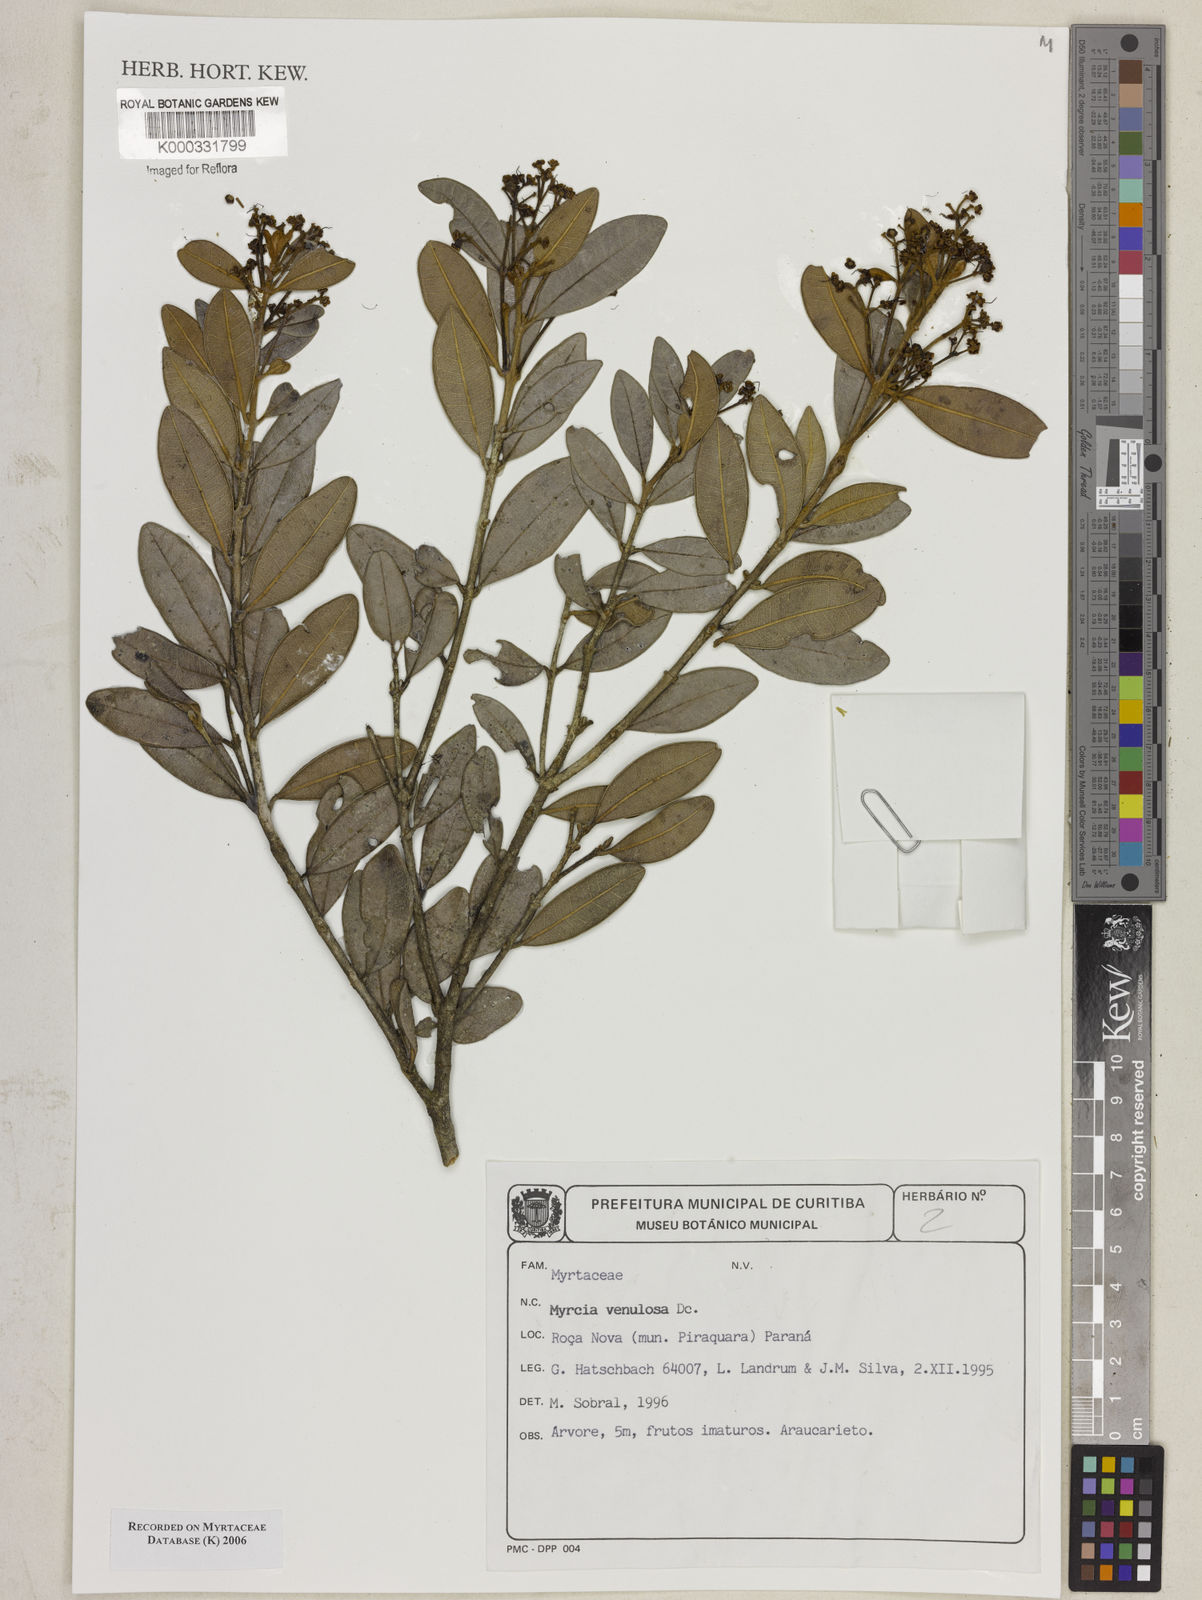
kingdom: Plantae
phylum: Tracheophyta
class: Magnoliopsida
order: Myrtales
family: Myrtaceae
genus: Myrcia
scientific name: Myrcia venulosa
